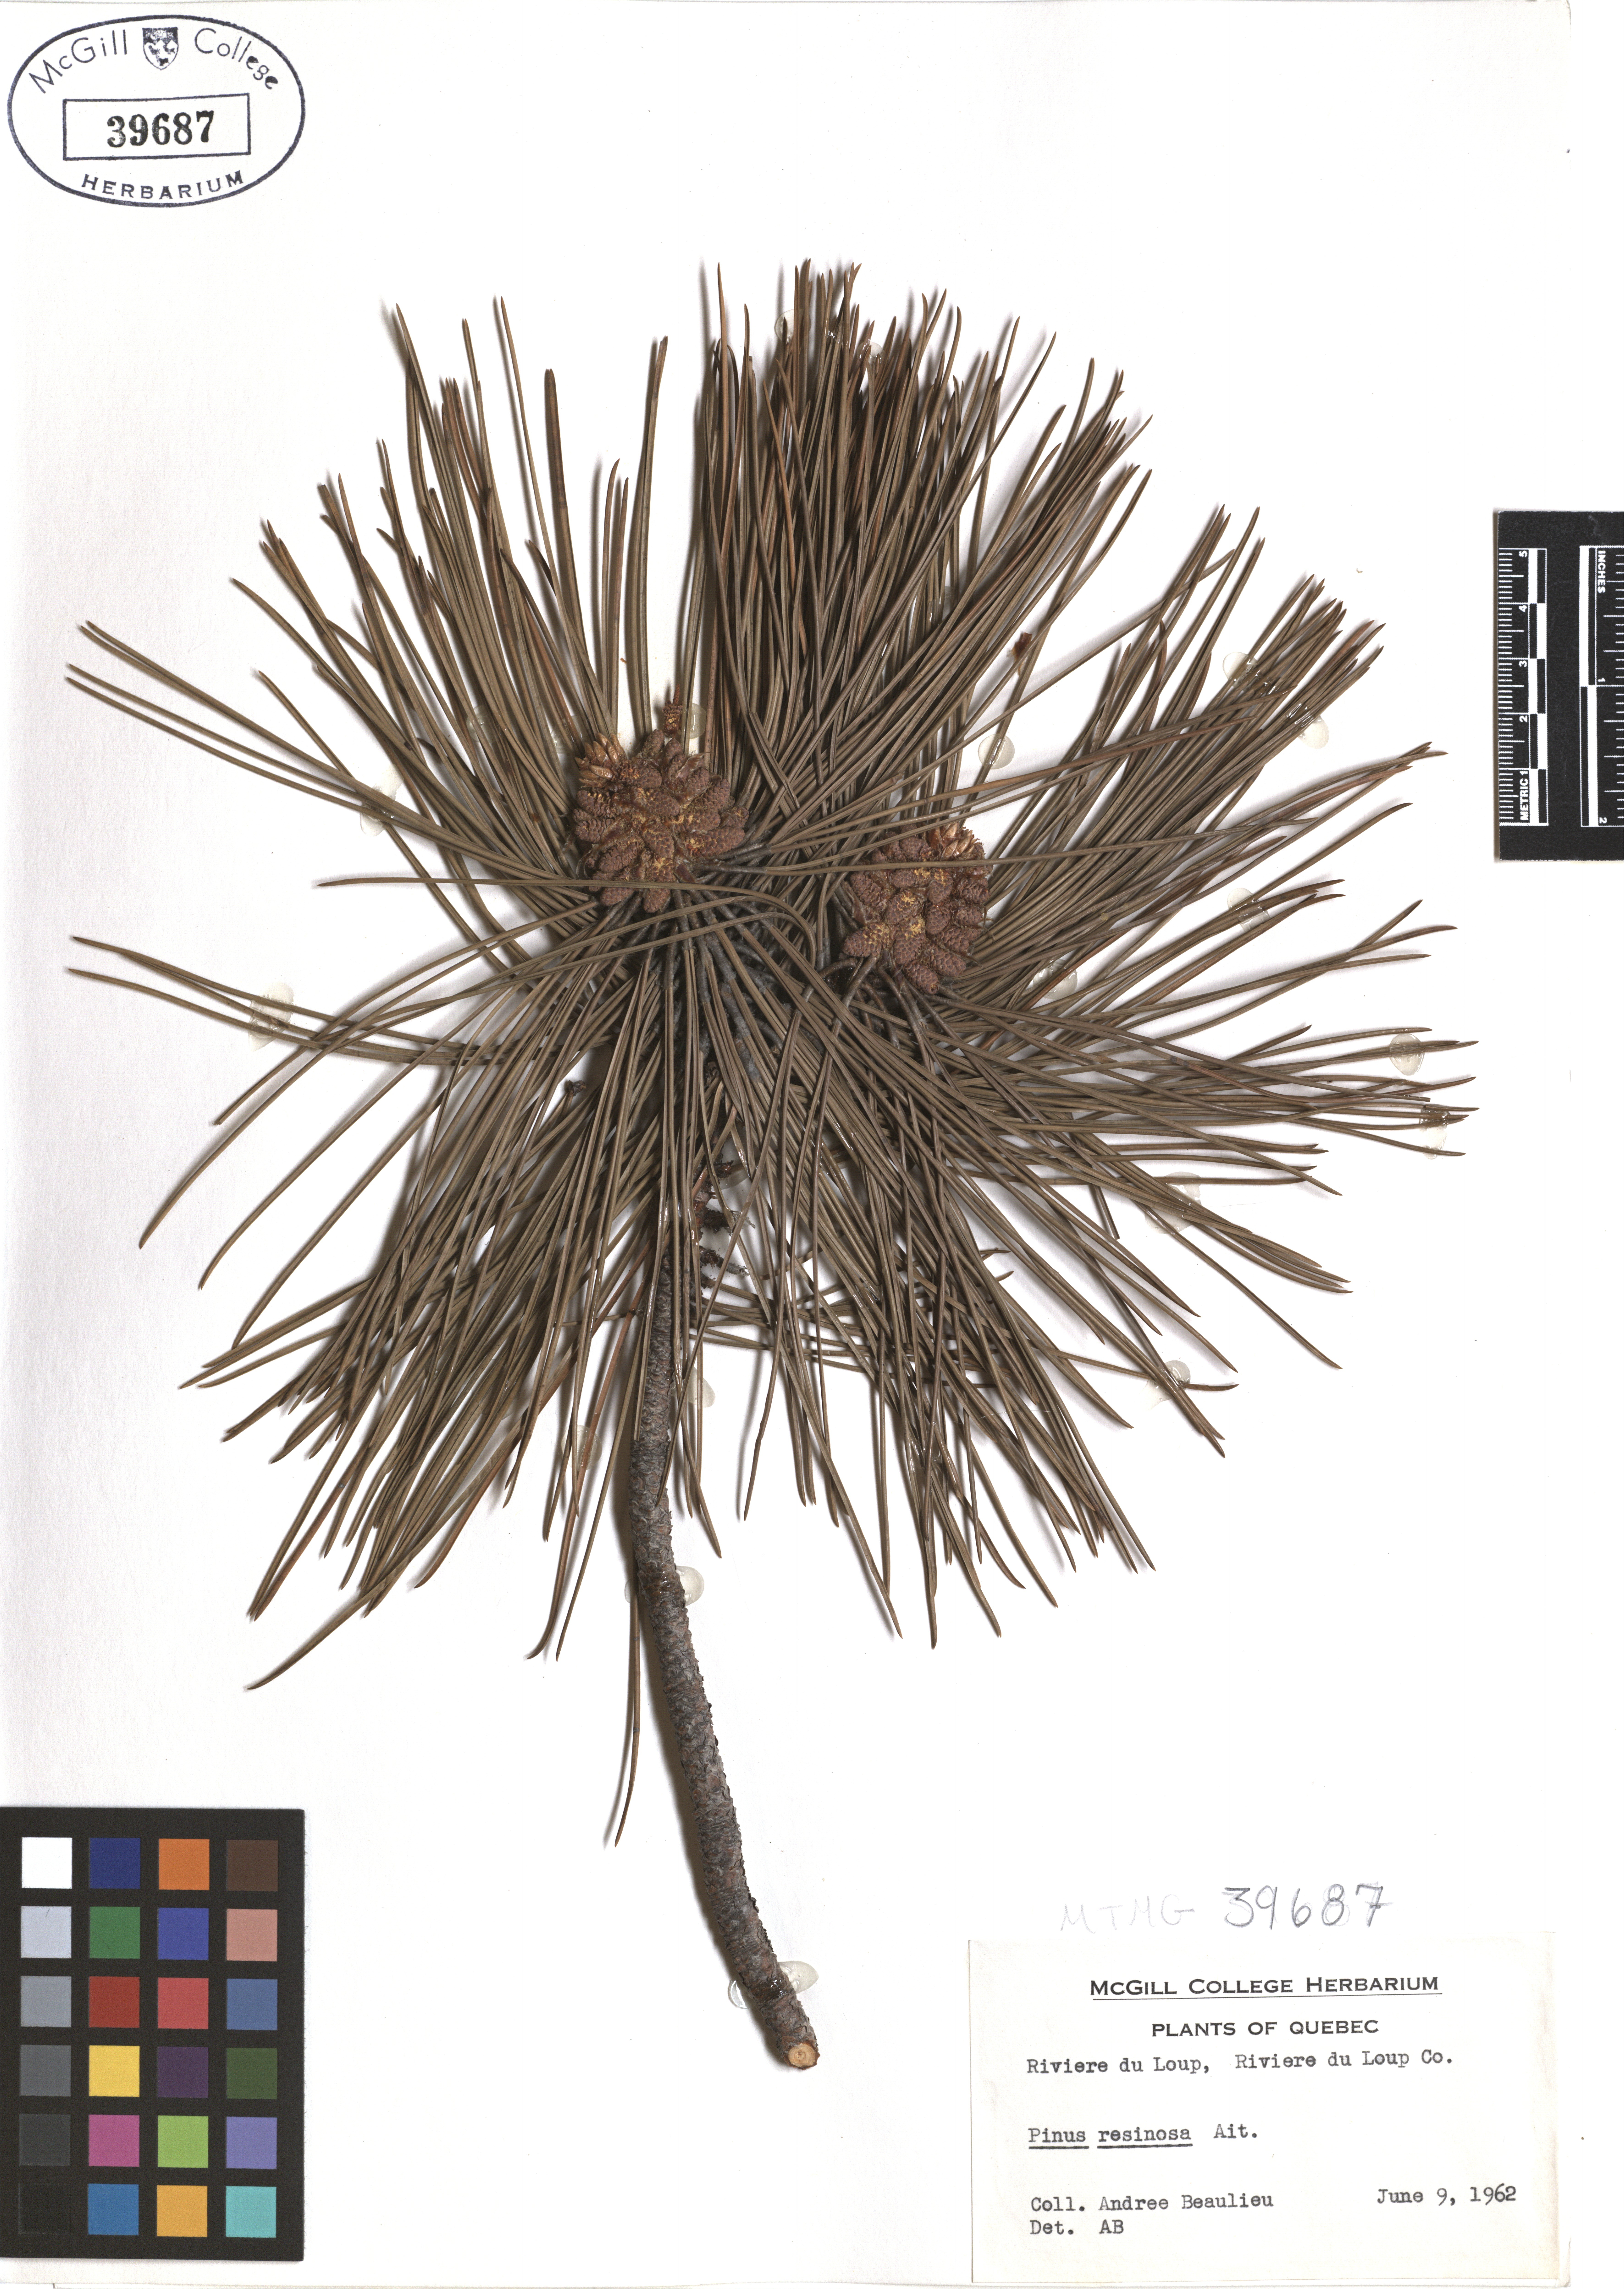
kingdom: Plantae
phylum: Tracheophyta
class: Pinopsida
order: Pinales
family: Pinaceae
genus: Pinus
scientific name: Pinus hartwegii
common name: Hartweg's pine
